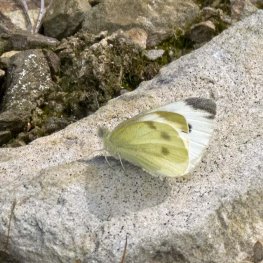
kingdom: Animalia
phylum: Arthropoda
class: Insecta
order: Lepidoptera
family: Pieridae
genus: Pieris
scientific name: Pieris rapae
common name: Cabbage White
